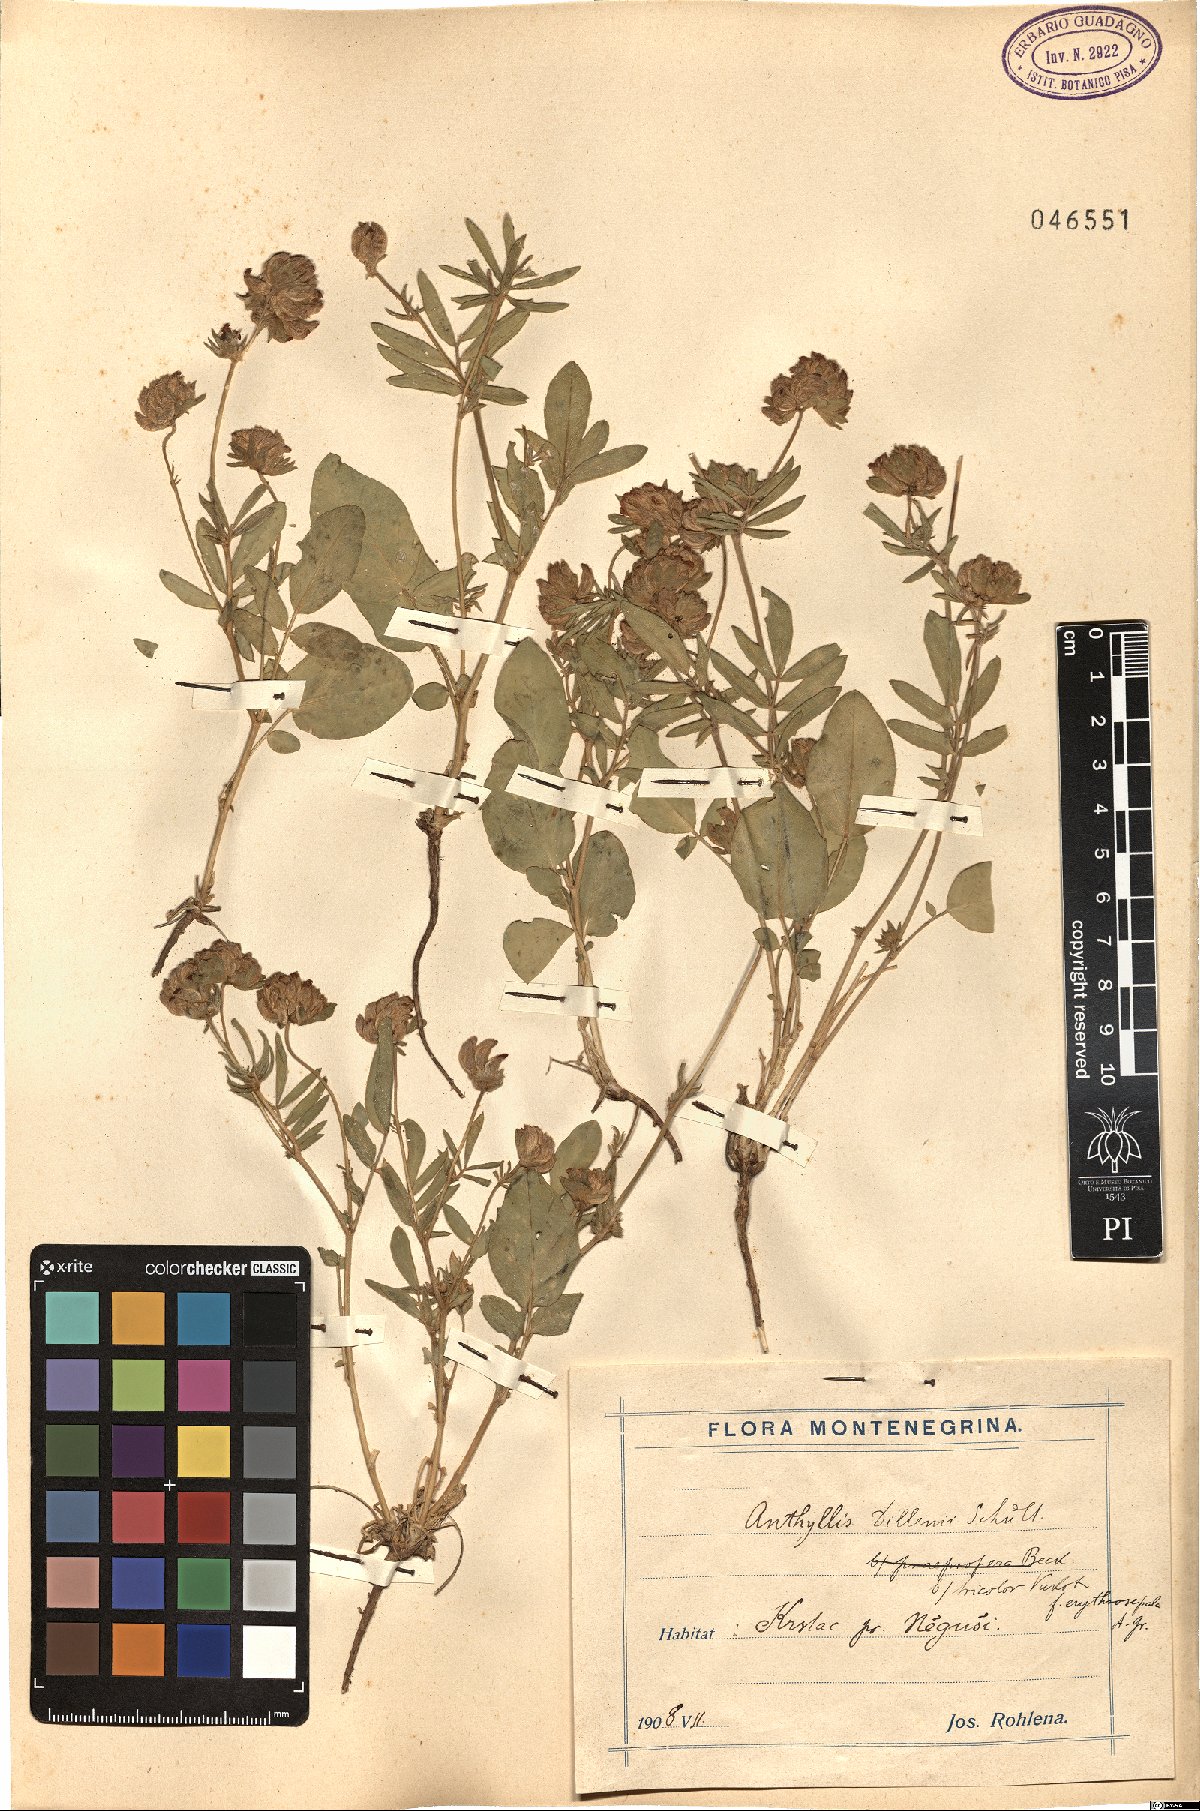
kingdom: Plantae
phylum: Tracheophyta
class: Magnoliopsida
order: Fabales
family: Fabaceae
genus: Anthyllis
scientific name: Anthyllis vulneraria
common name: Kidney vetch
